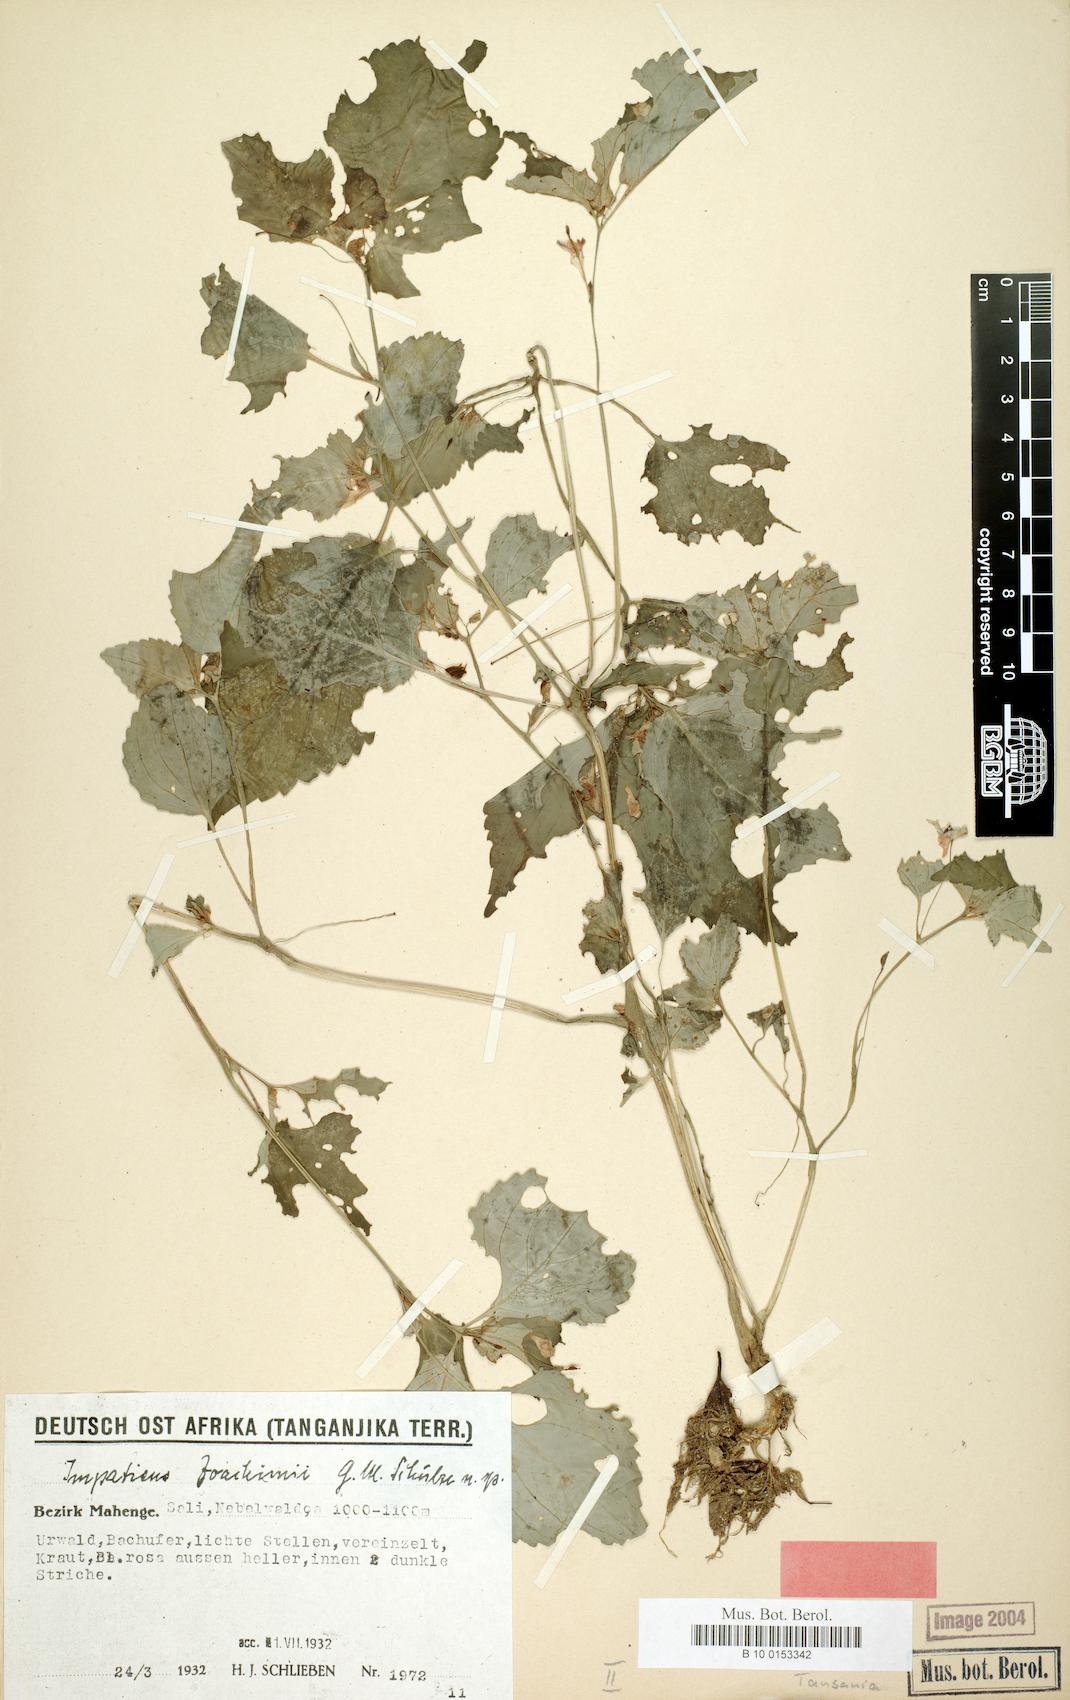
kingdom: Plantae
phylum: Tracheophyta
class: Magnoliopsida
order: Ericales
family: Balsaminaceae
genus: Impatiens
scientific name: Impatiens joachimii
